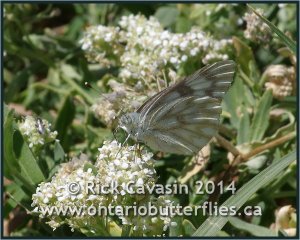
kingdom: Animalia
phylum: Arthropoda
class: Insecta
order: Lepidoptera
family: Pieridae
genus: Pontia
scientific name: Pontia occidentalis
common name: Western White
